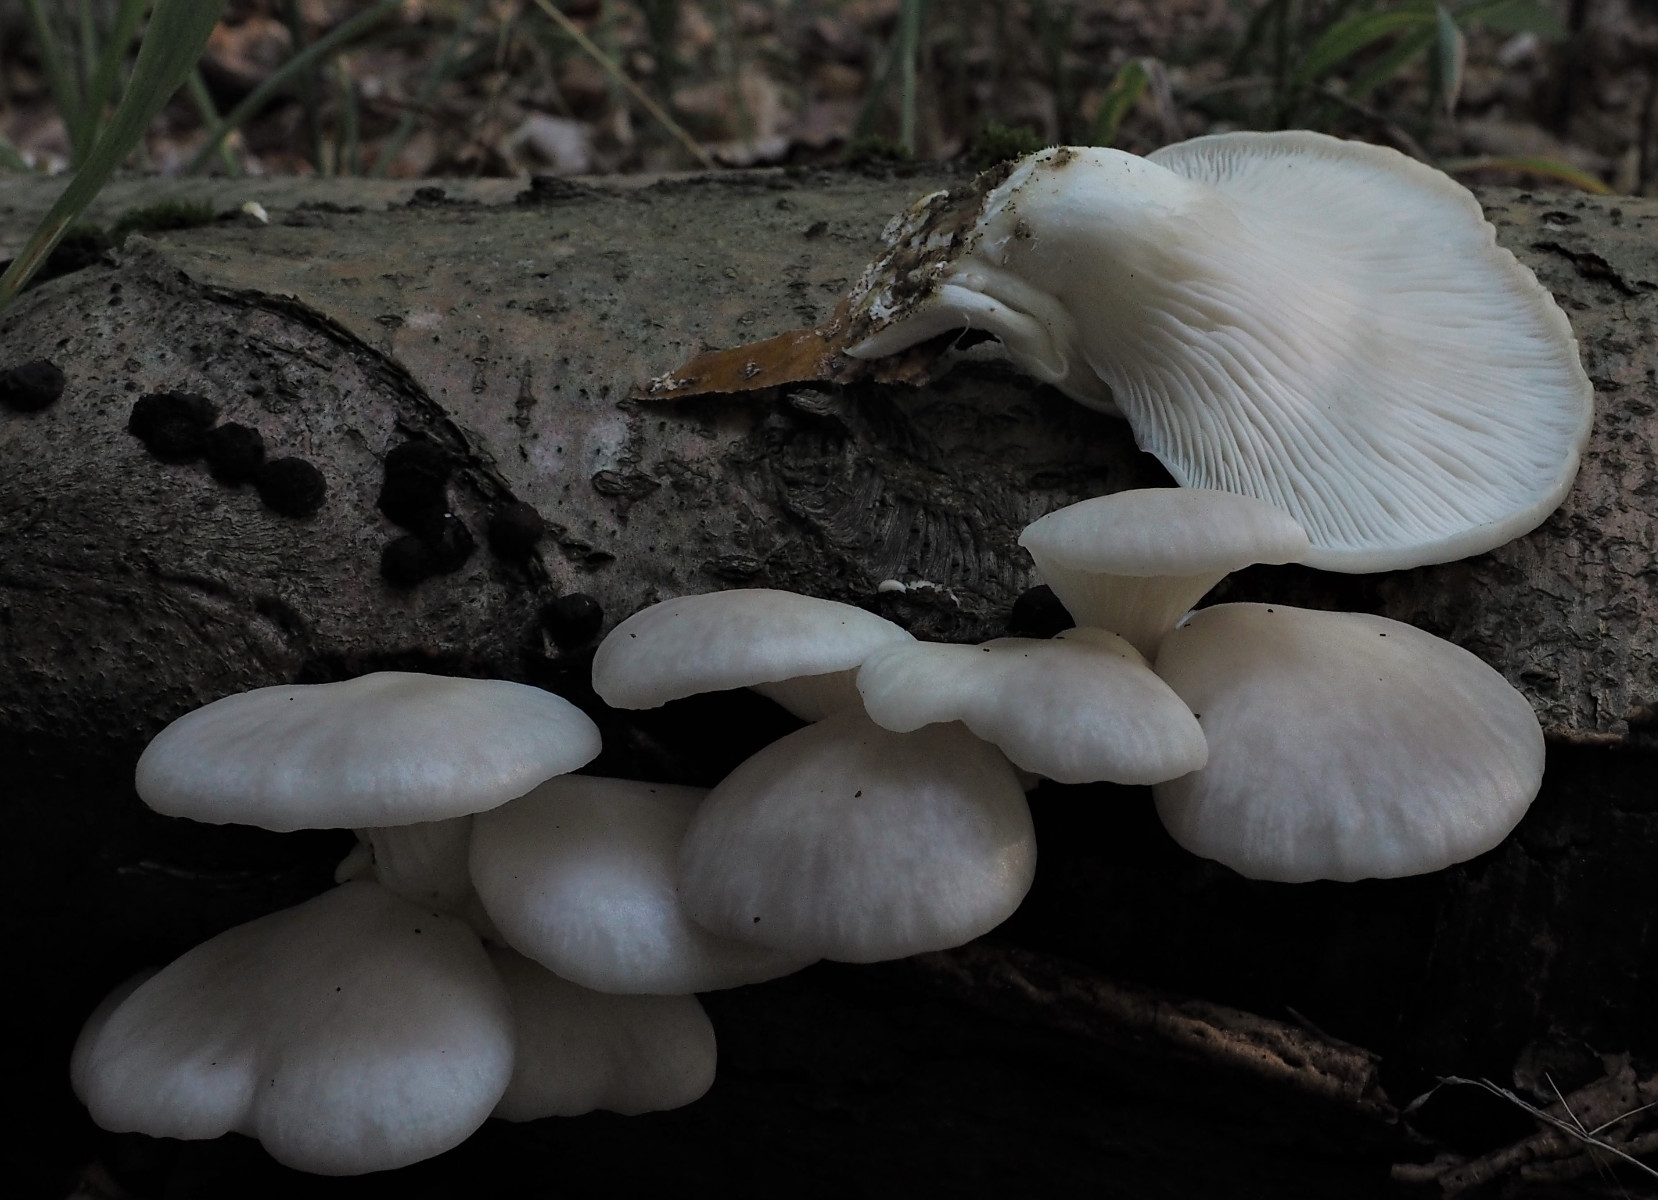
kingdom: Fungi
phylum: Basidiomycota
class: Agaricomycetes
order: Agaricales
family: Pleurotaceae
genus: Pleurotus
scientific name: Pleurotus pulmonarius
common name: sommer-østershat
